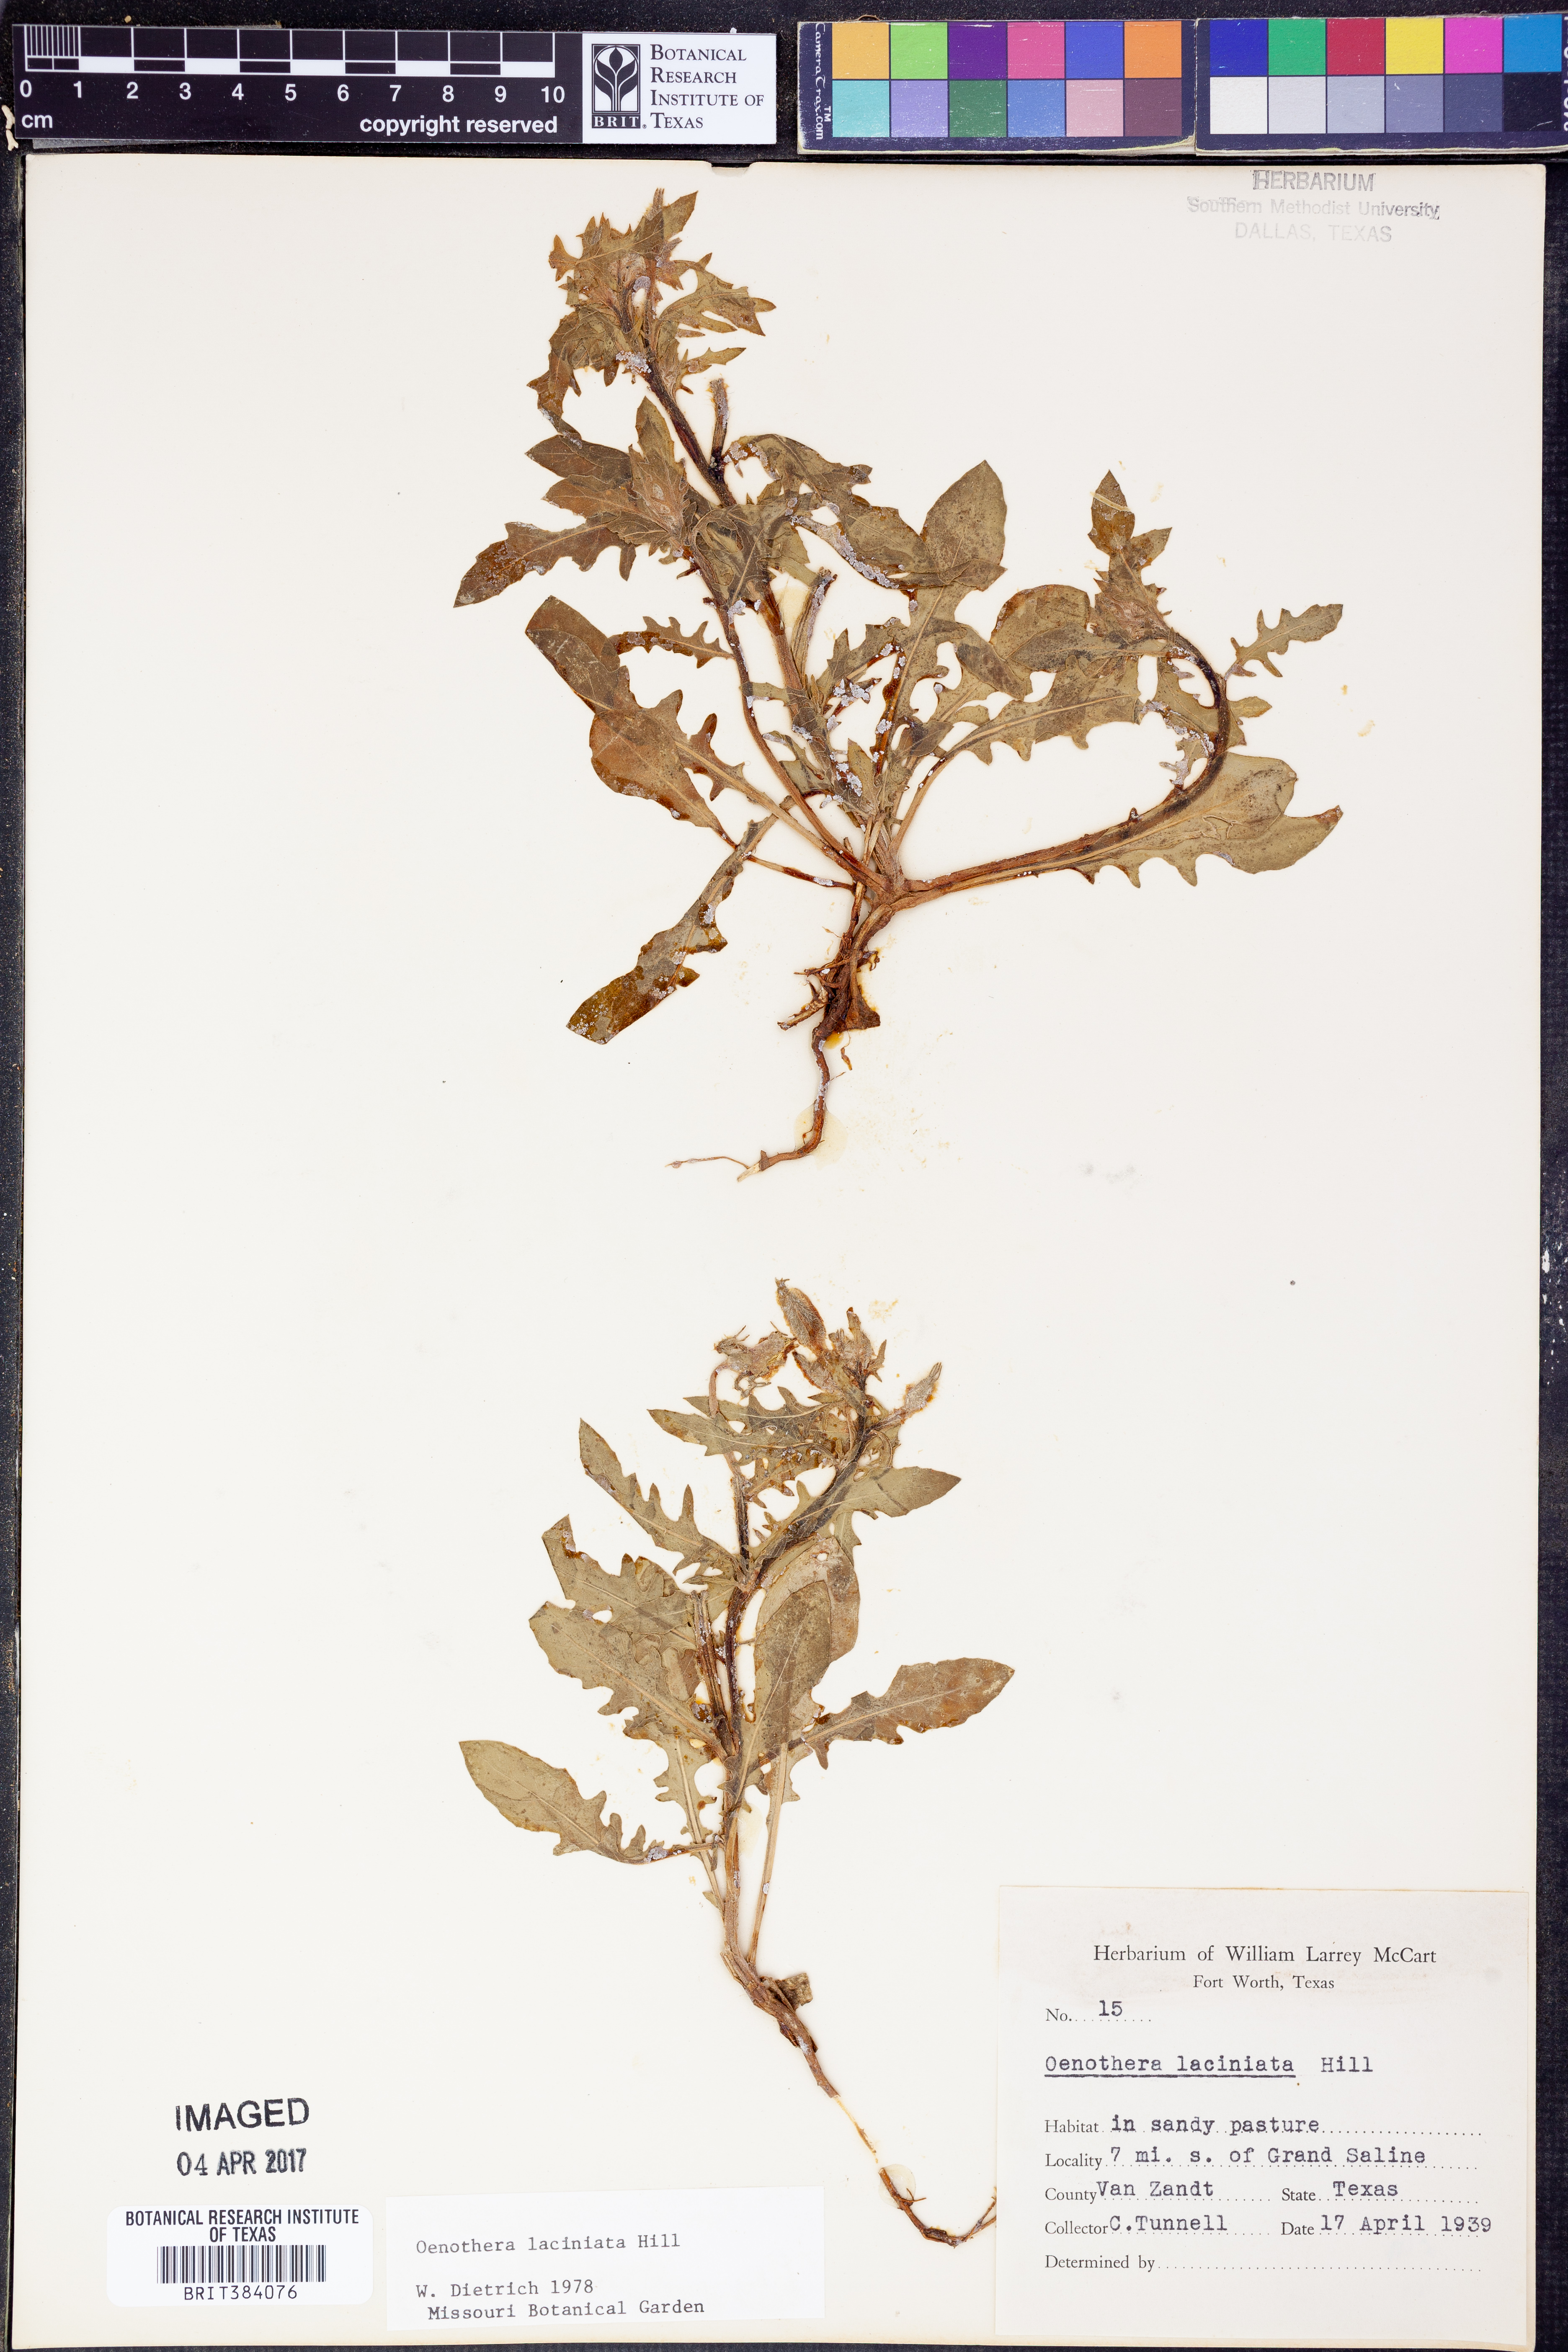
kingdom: Plantae
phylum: Tracheophyta
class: Magnoliopsida
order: Myrtales
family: Onagraceae
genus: Oenothera
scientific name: Oenothera laciniata
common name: Cut-leaved evening-primrose
